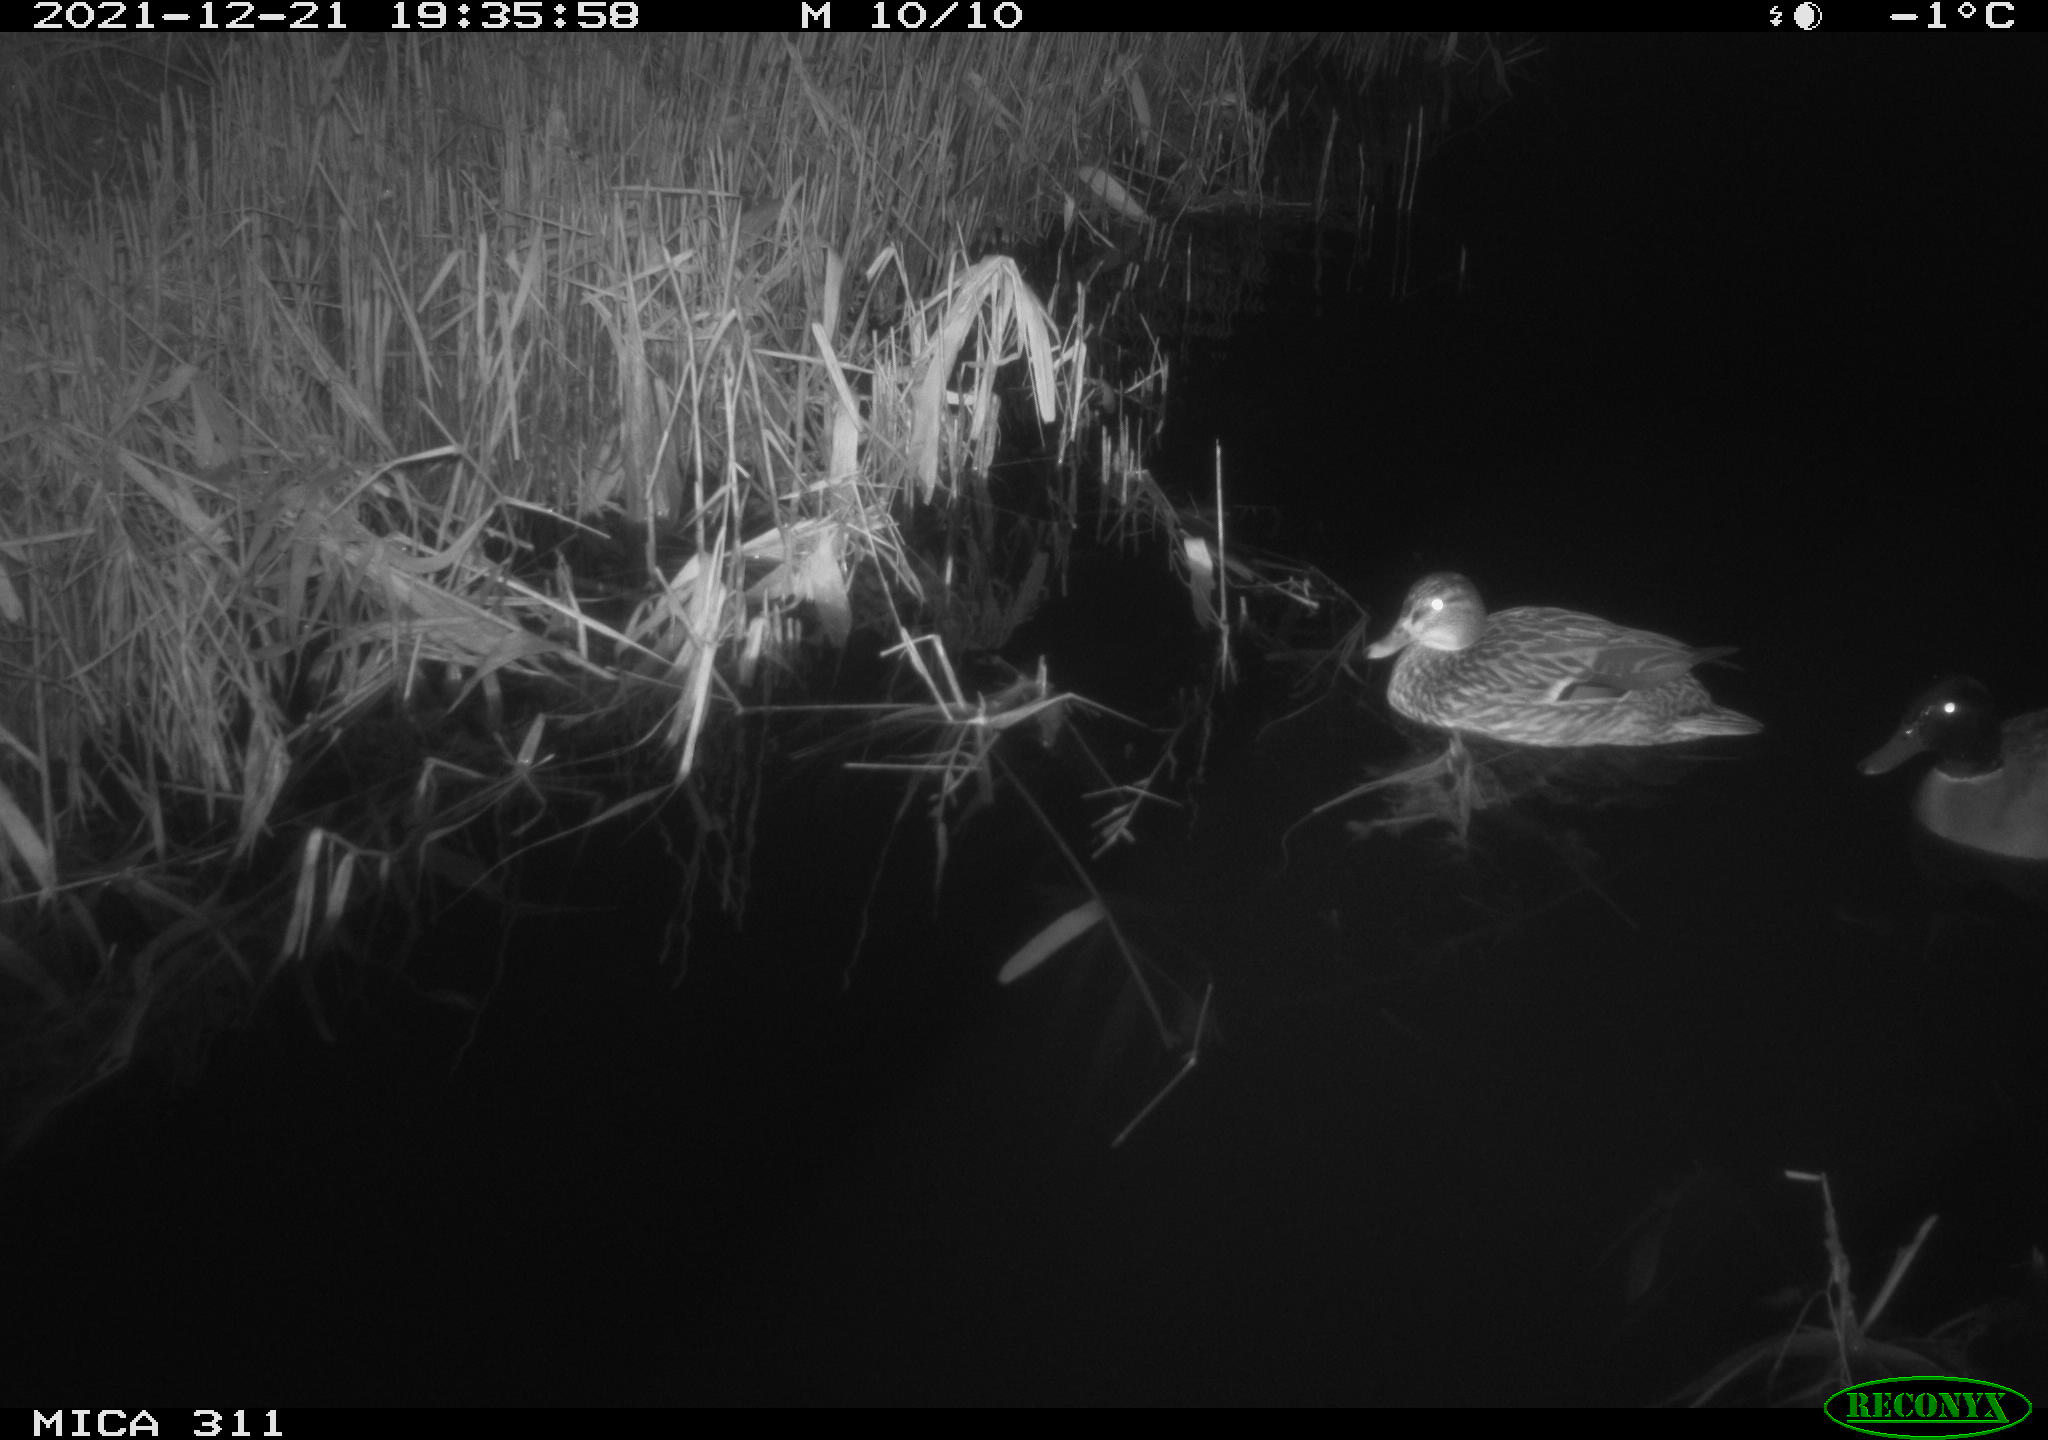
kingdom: Animalia
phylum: Chordata
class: Aves
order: Anseriformes
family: Anatidae
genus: Anas
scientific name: Anas platyrhynchos
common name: Mallard
